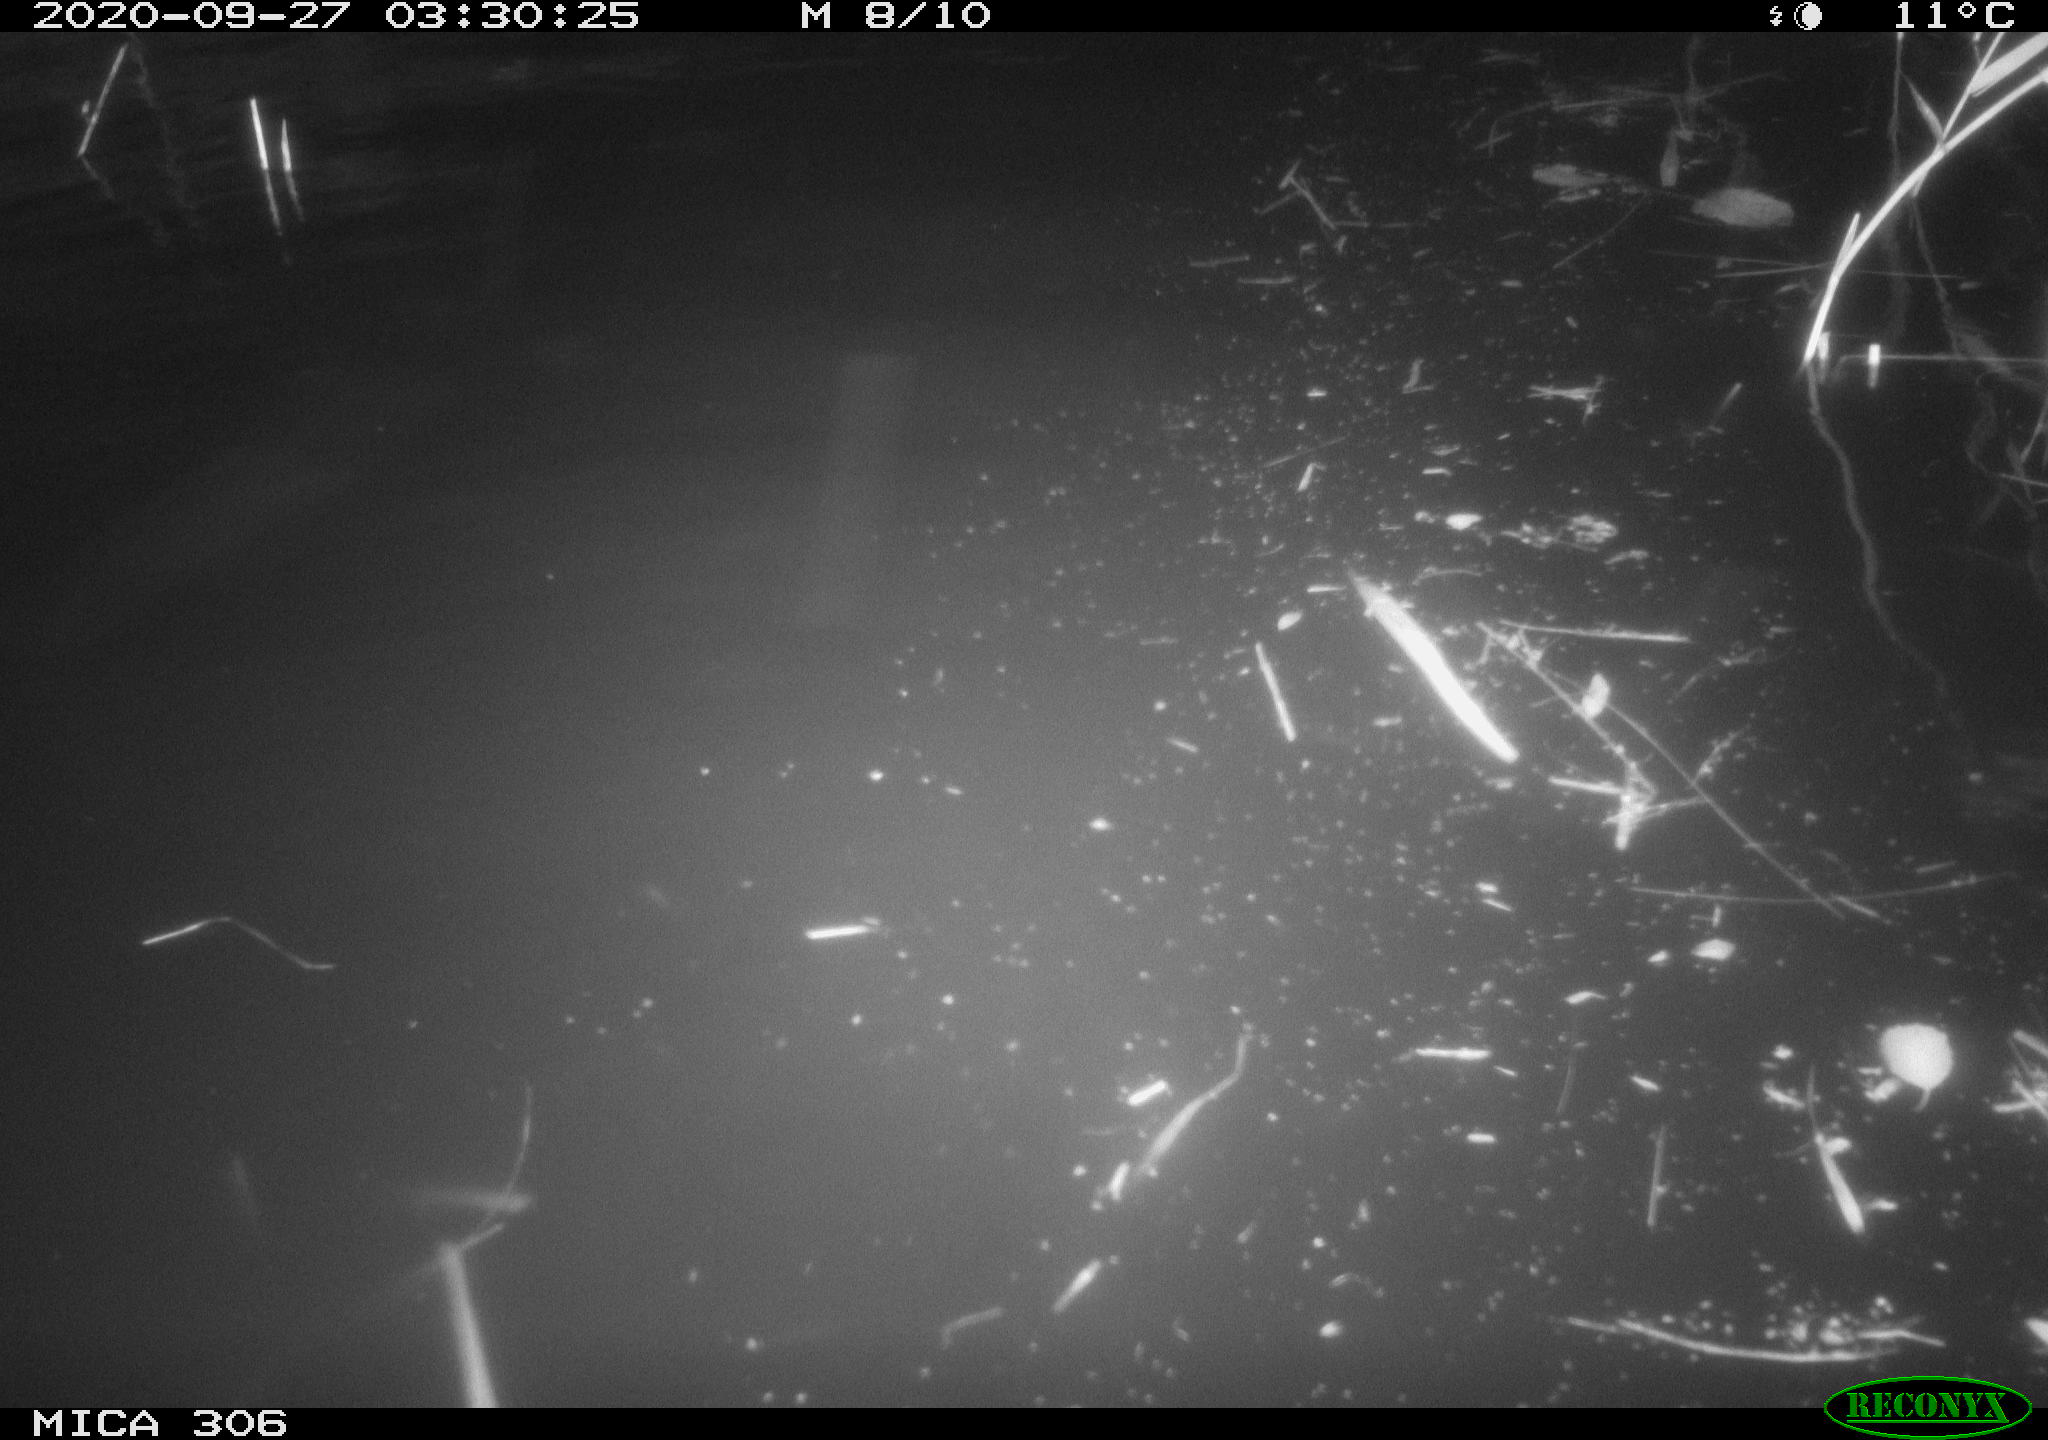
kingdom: Animalia
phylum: Chordata
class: Mammalia
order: Rodentia
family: Cricetidae
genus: Ondatra
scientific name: Ondatra zibethicus
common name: Muskrat
